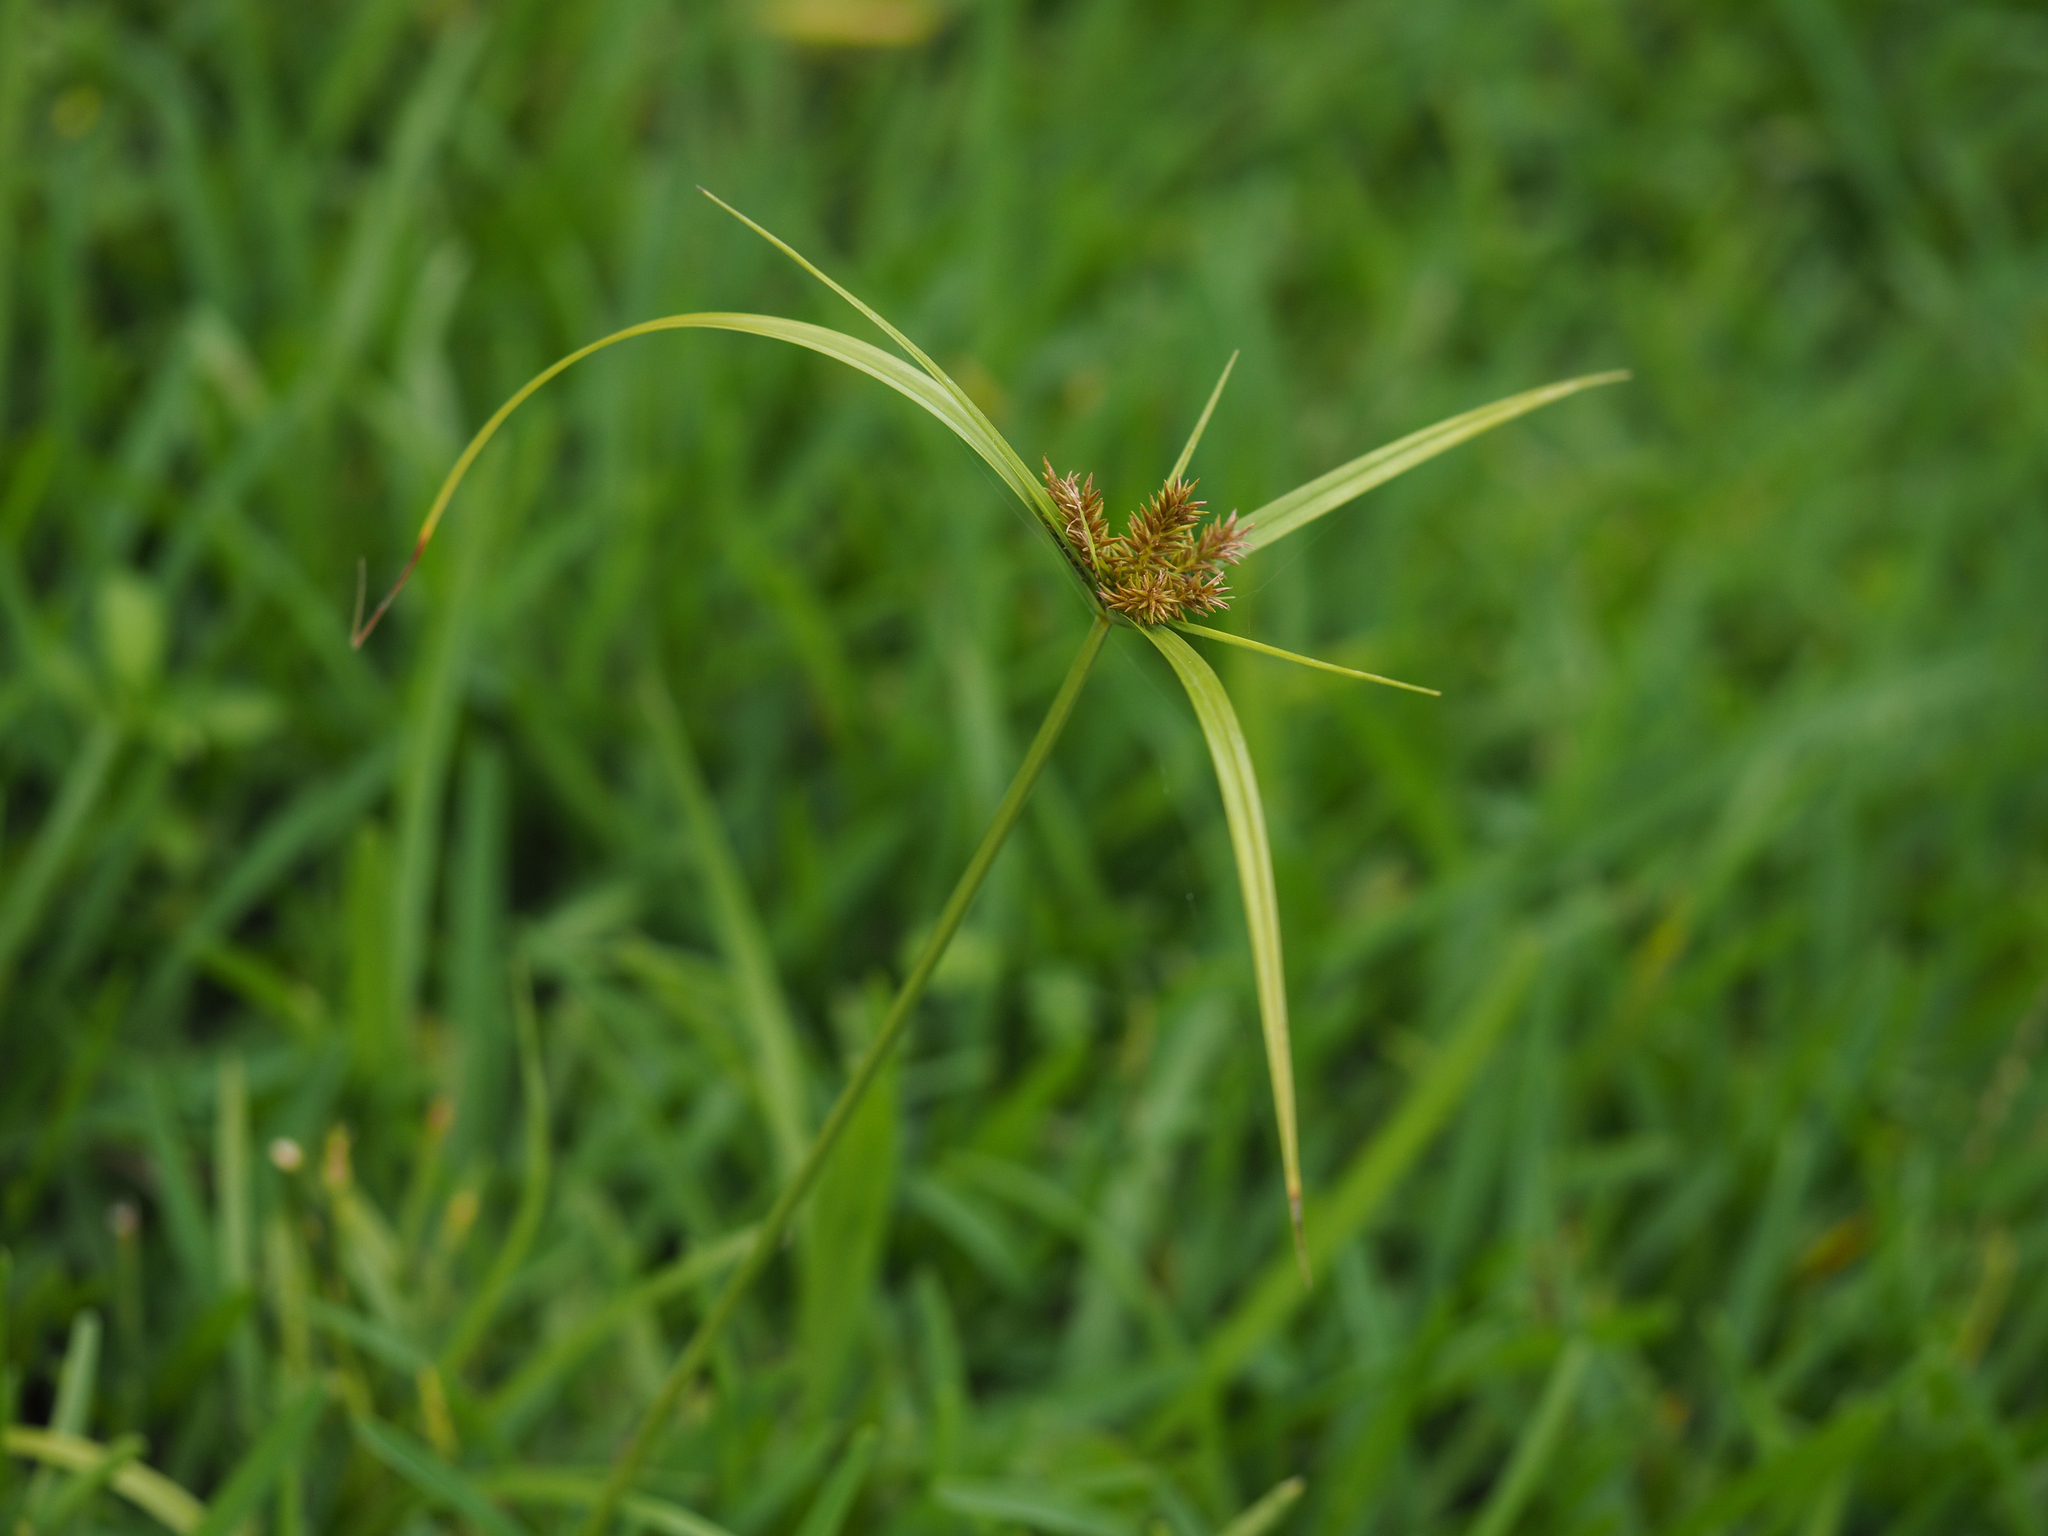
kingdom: Plantae
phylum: Tracheophyta
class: Liliopsida
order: Poales
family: Cyperaceae
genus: Cyperus
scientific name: Cyperus cyperoides
